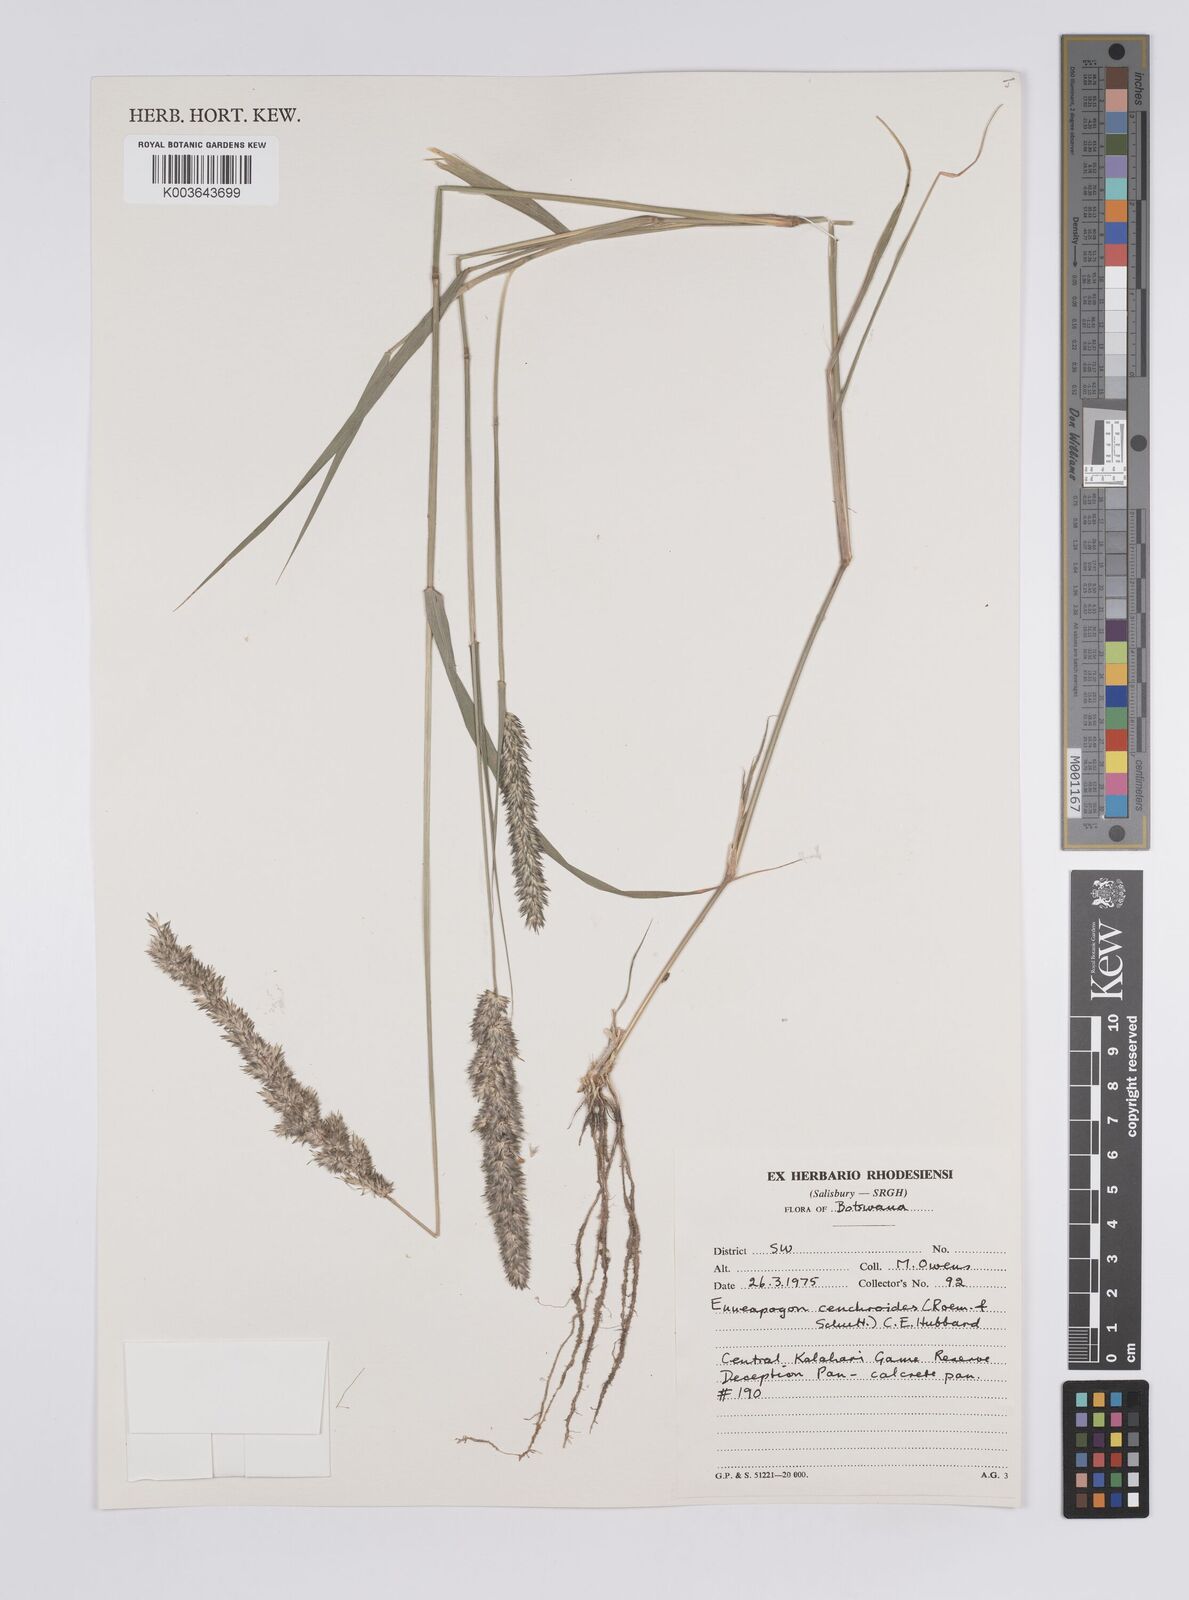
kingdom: Plantae
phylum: Tracheophyta
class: Liliopsida
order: Poales
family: Poaceae
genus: Enneapogon
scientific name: Enneapogon cenchroides
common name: Soft feather pappusgrass
